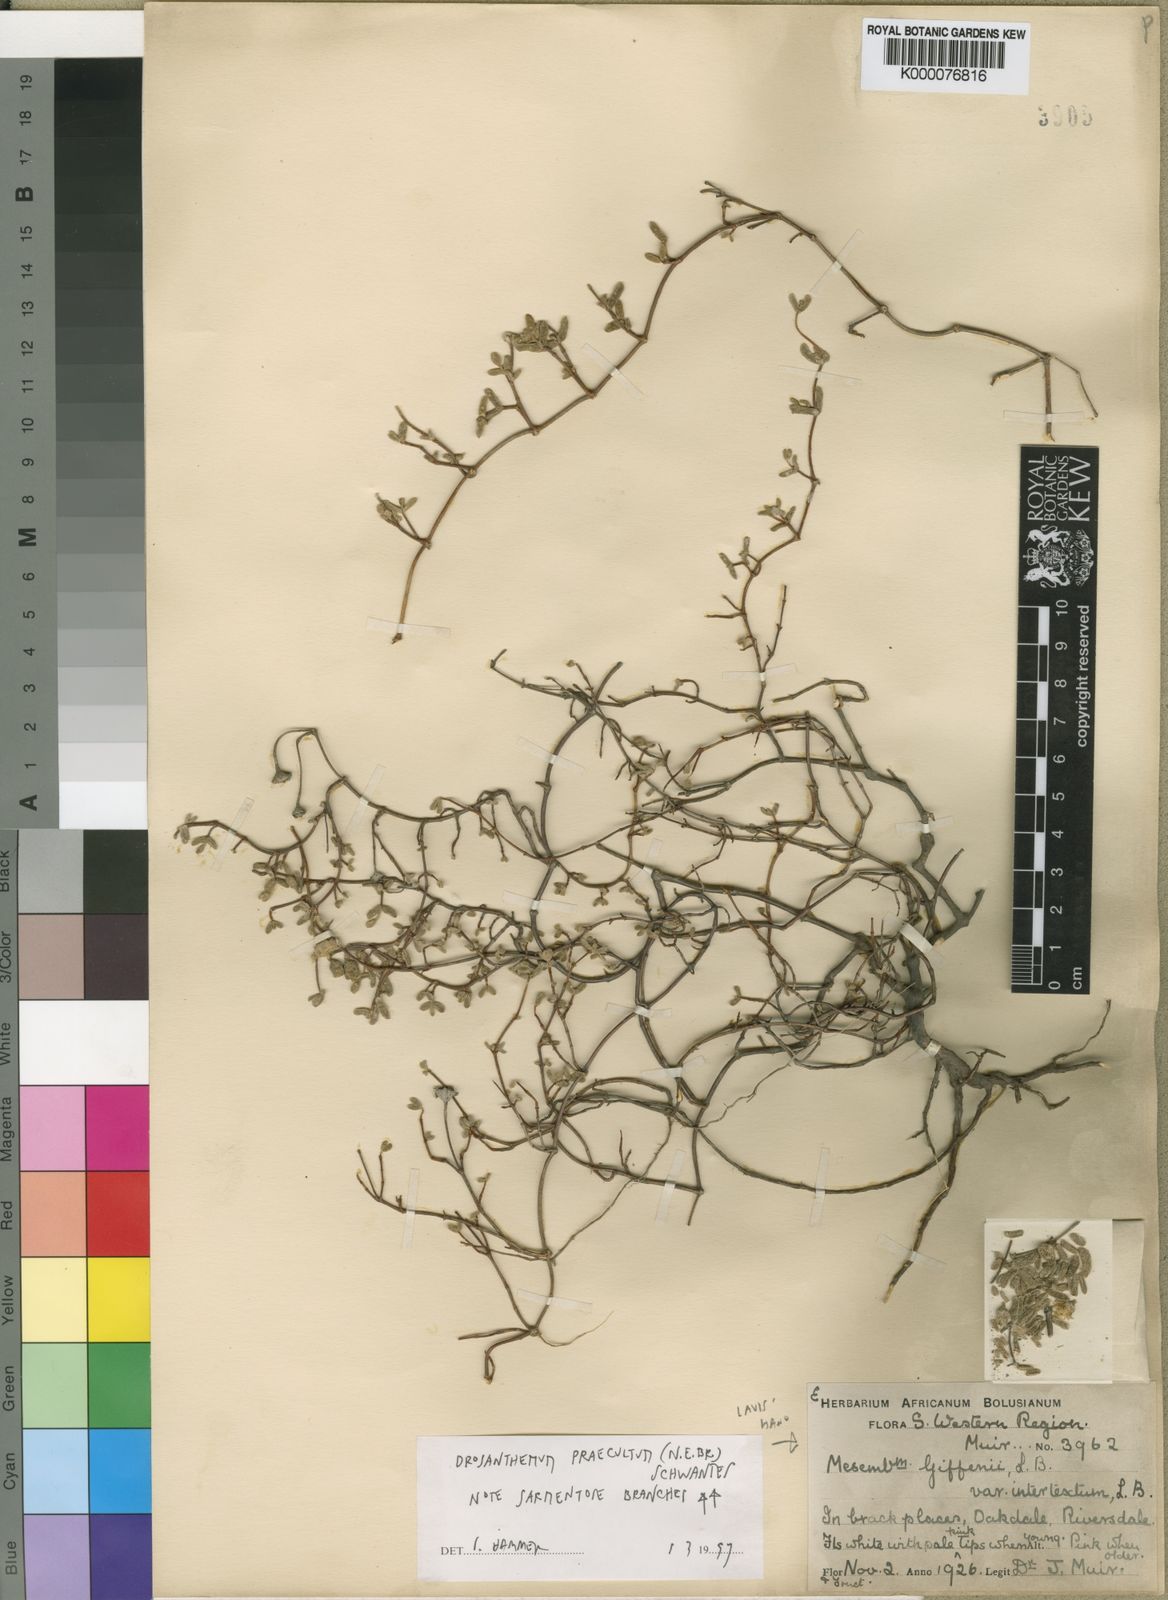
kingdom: Plantae
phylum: Tracheophyta
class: Magnoliopsida
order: Caryophyllales
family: Aizoaceae
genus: Drosanthemum
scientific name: Drosanthemum praecultum
